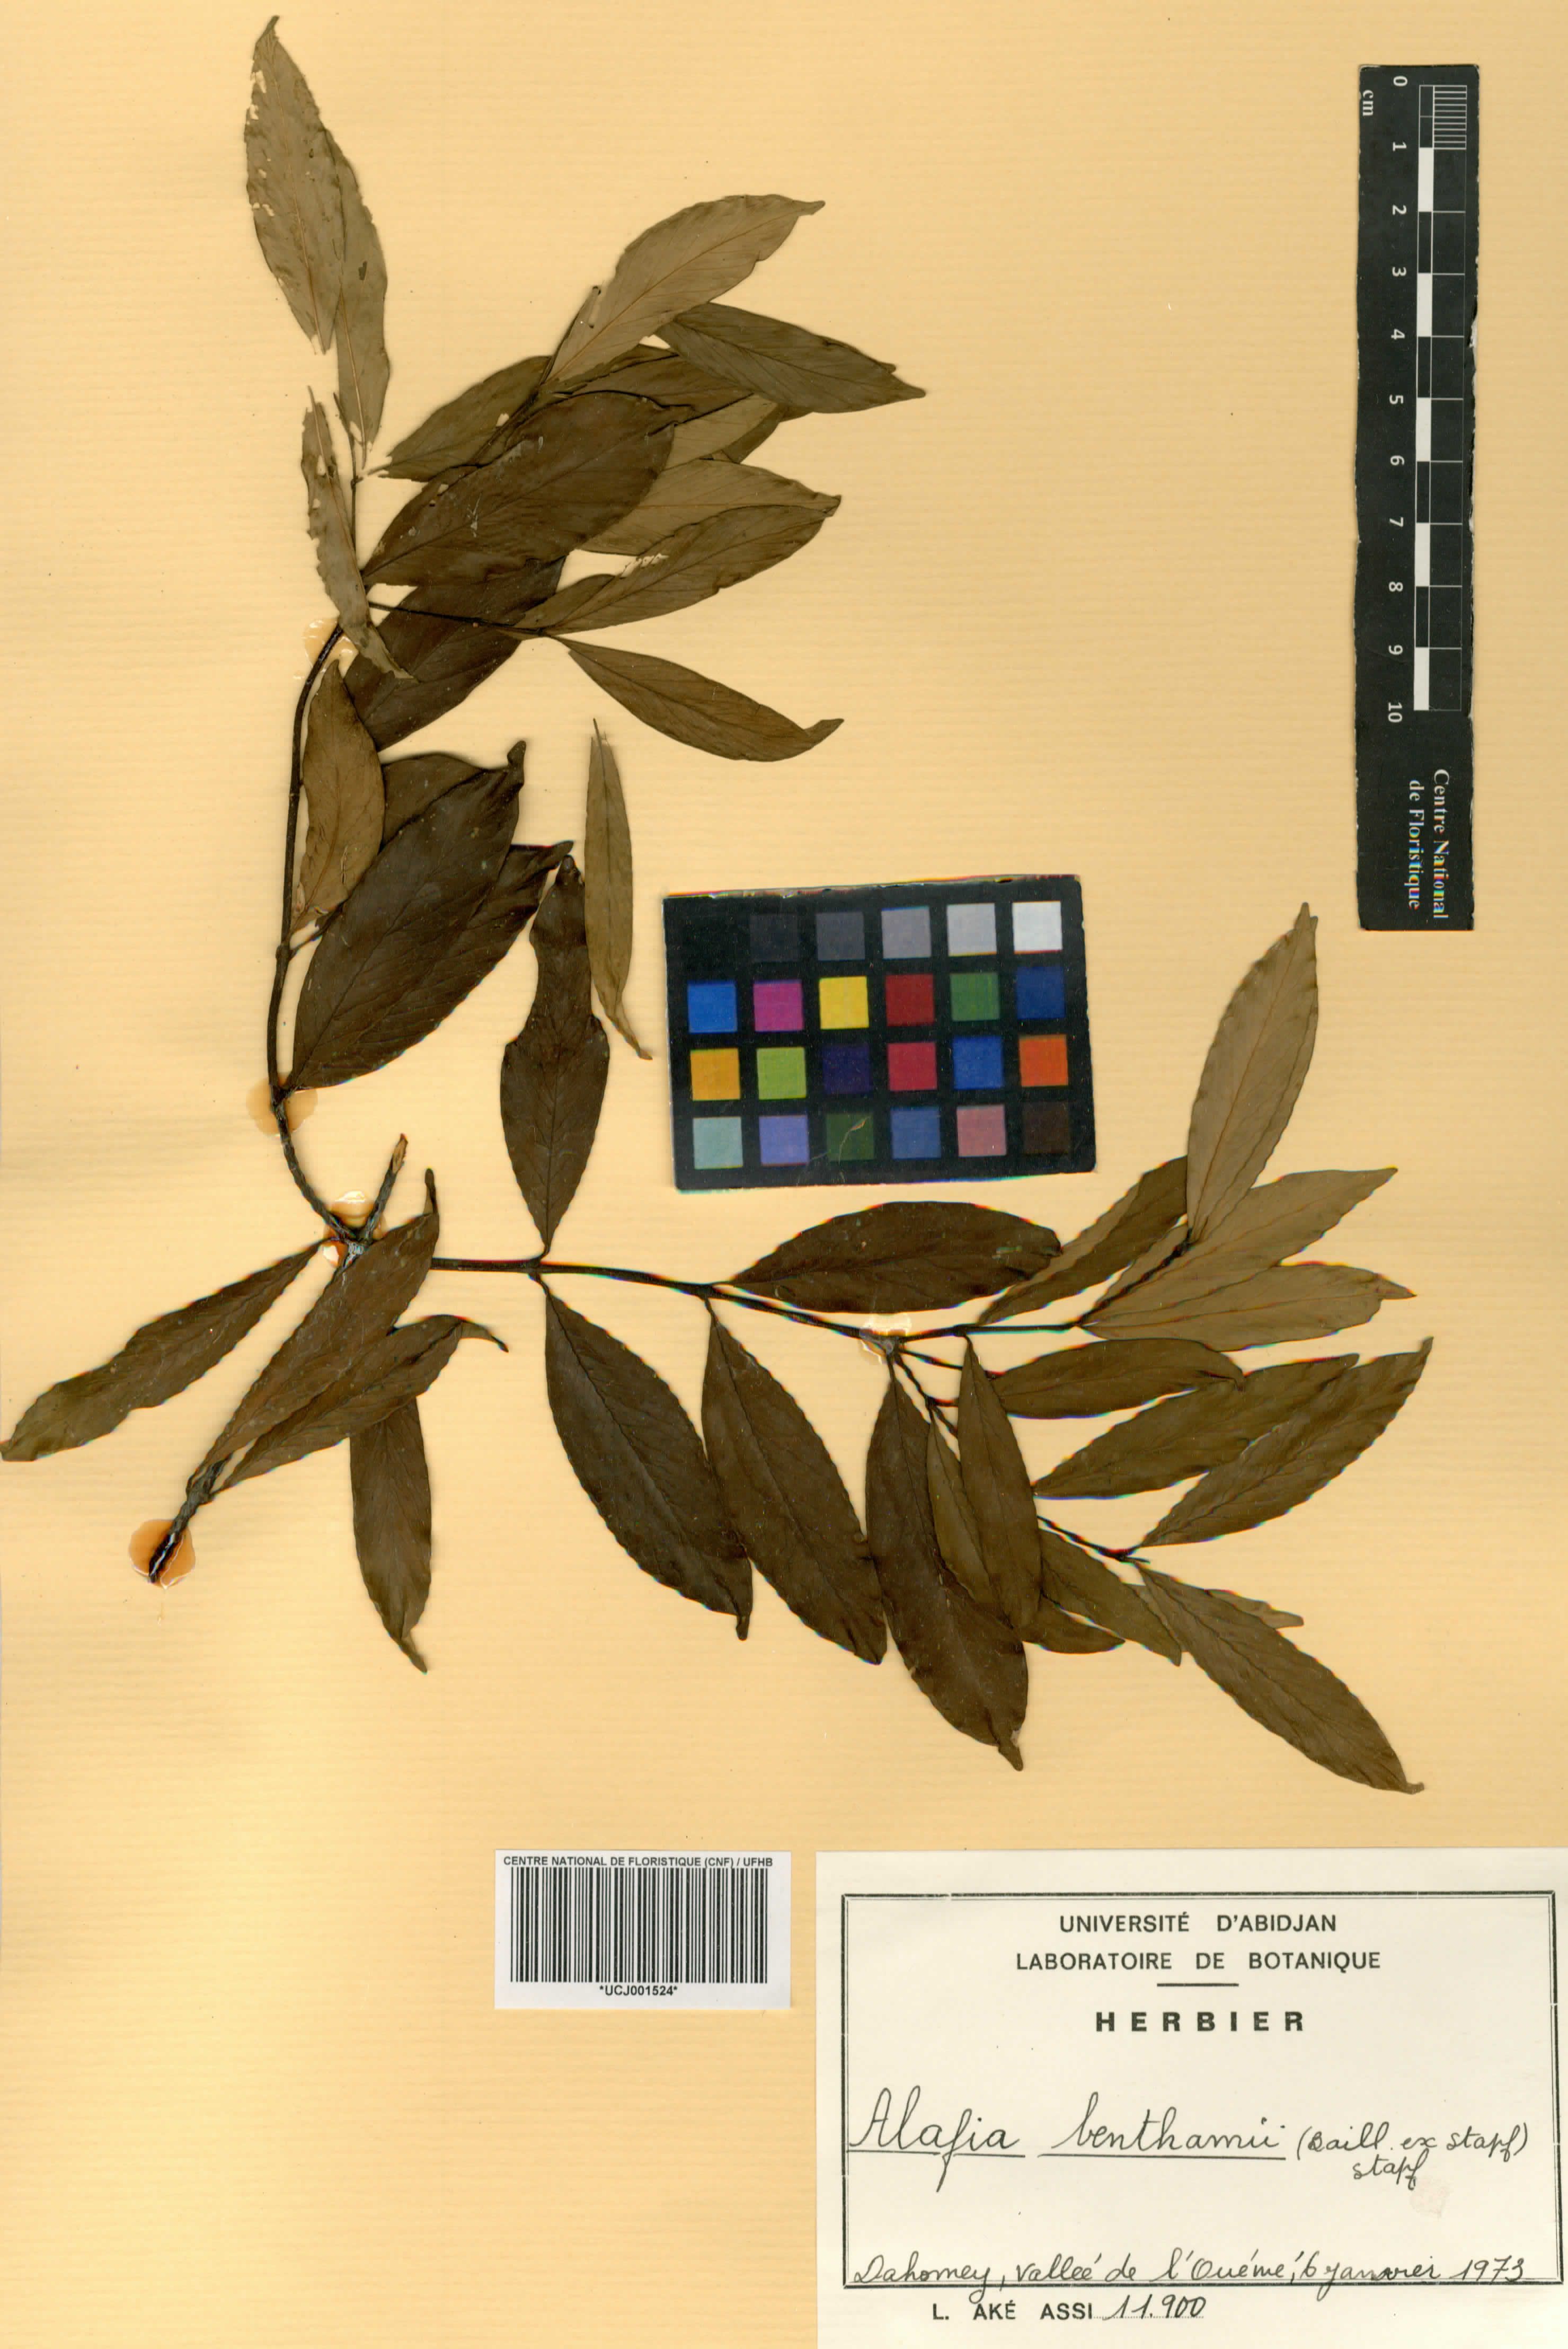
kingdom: Plantae
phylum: Tracheophyta
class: Magnoliopsida
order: Gentianales
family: Apocynaceae
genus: Alafia
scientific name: Alafia benthamii
